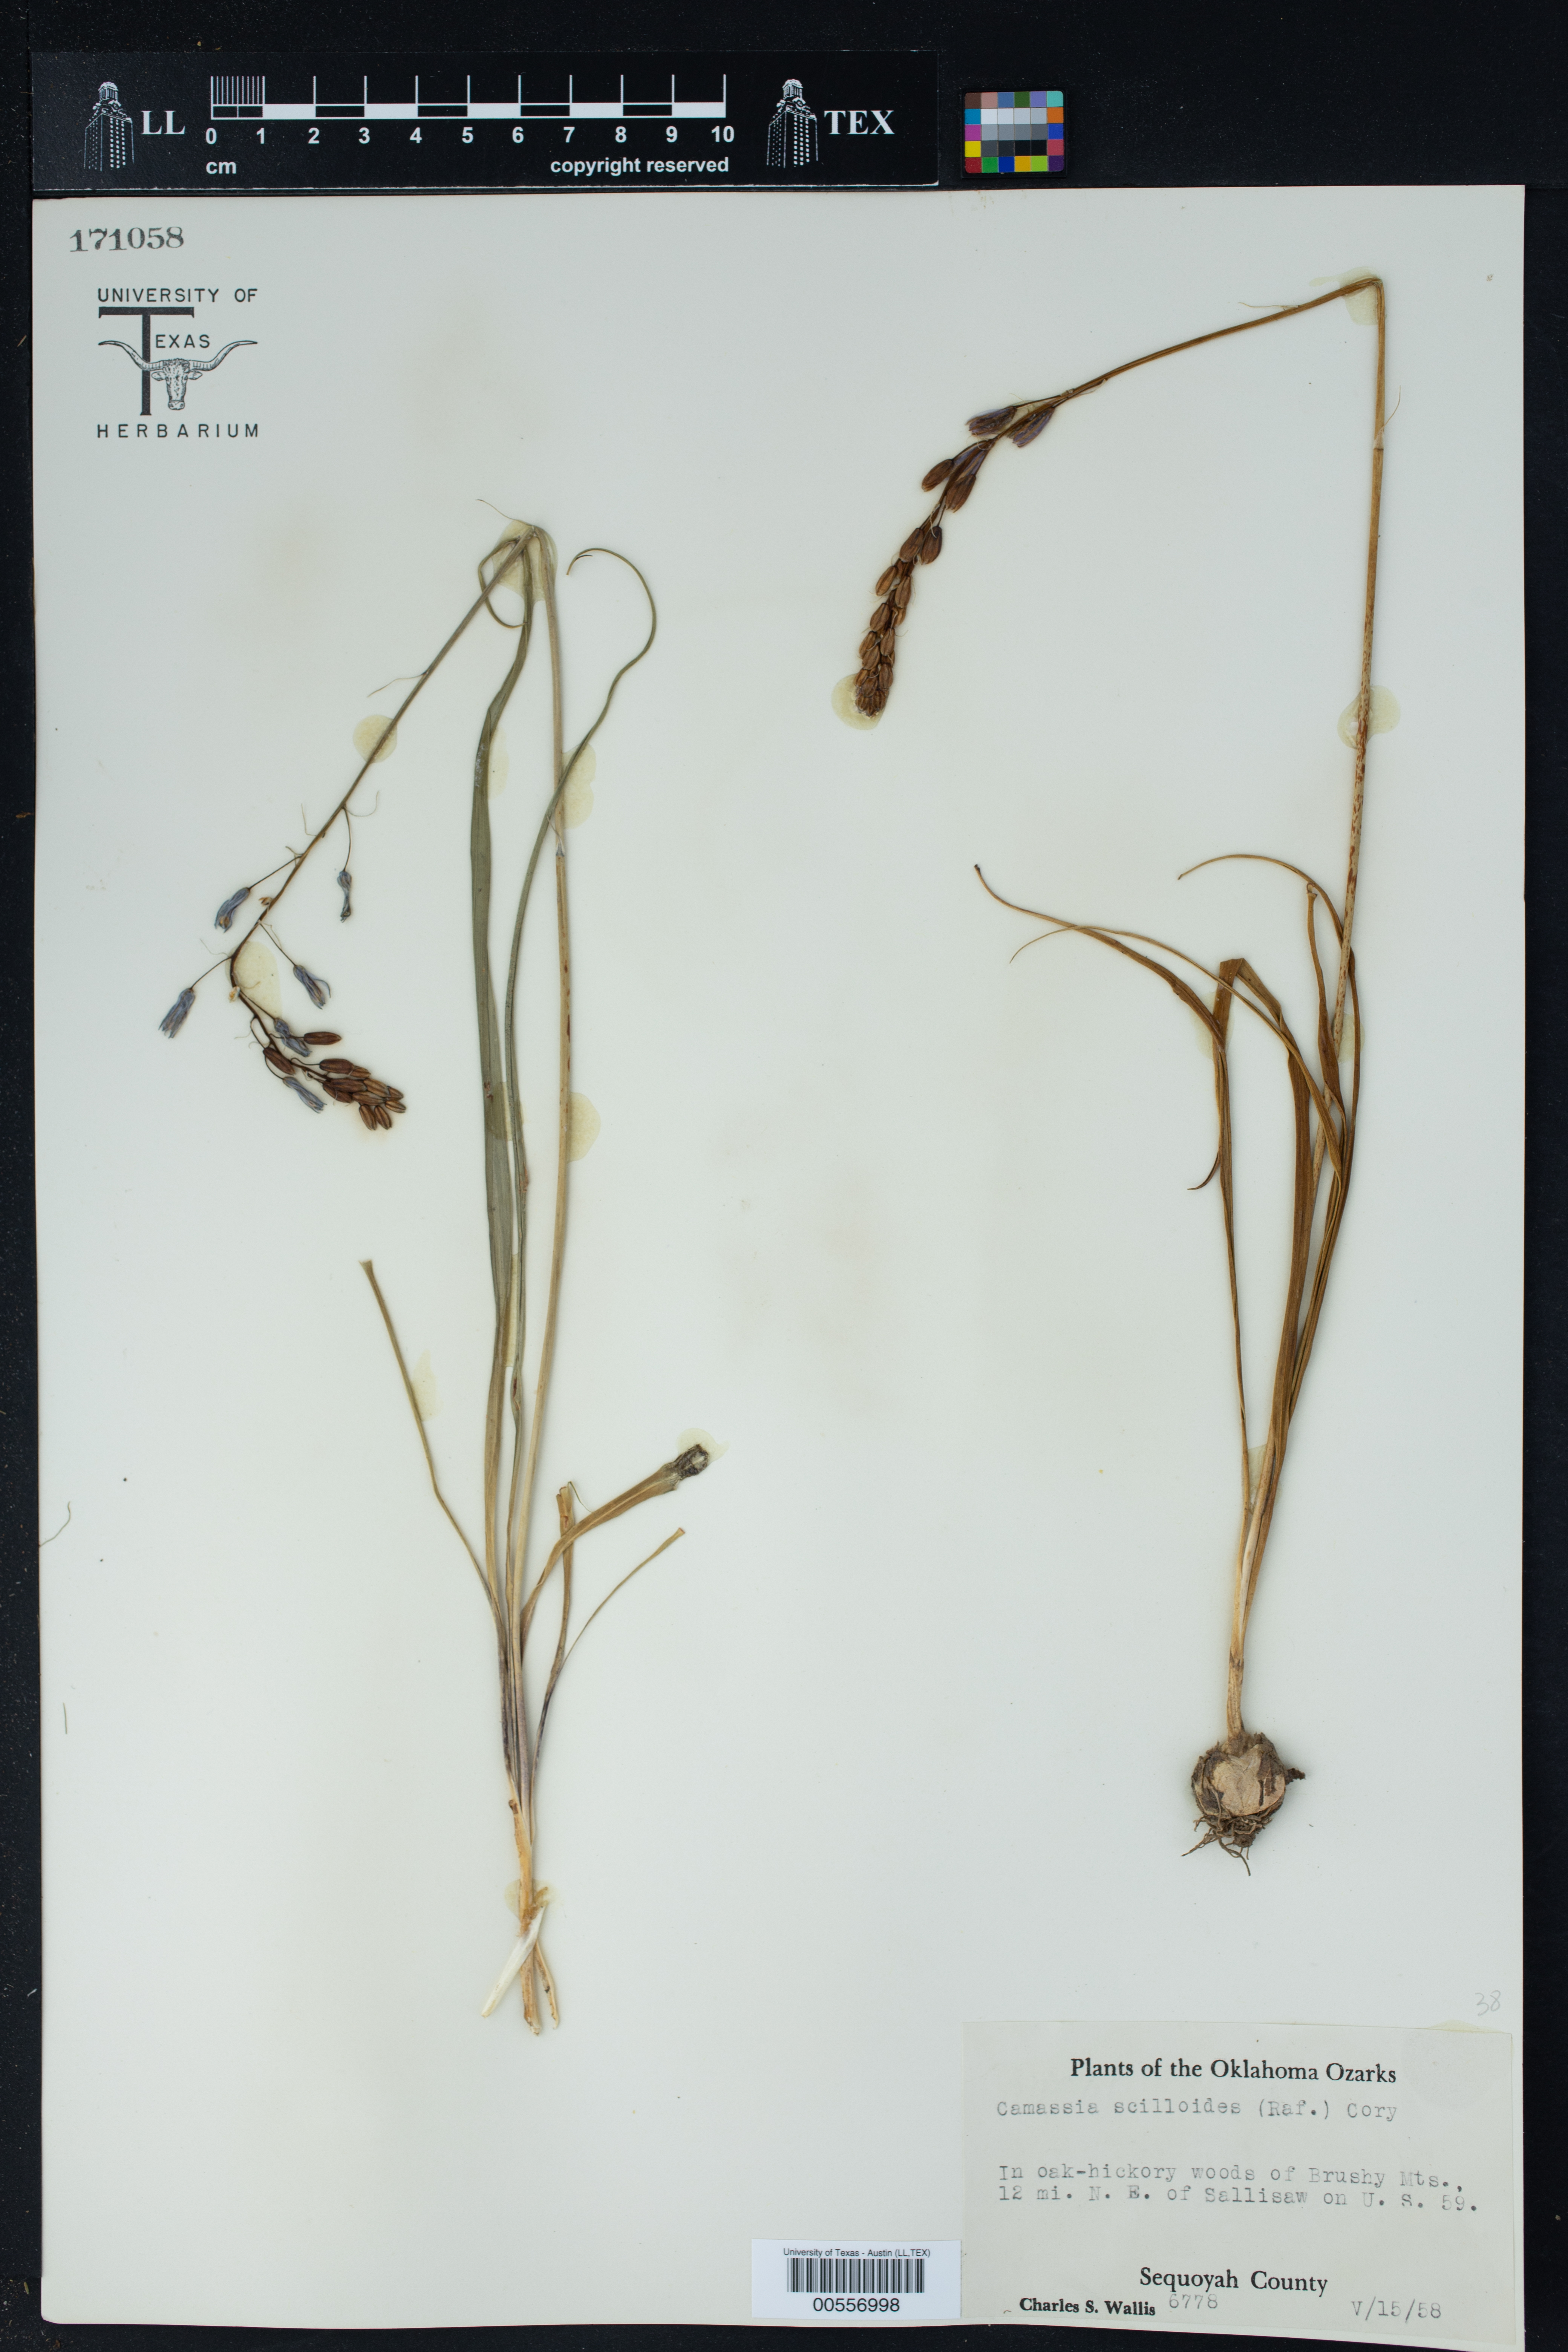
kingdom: Plantae
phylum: Tracheophyta
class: Liliopsida
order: Asparagales
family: Asparagaceae
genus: Camassia
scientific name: Camassia scilloides
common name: Wild hyacinth
